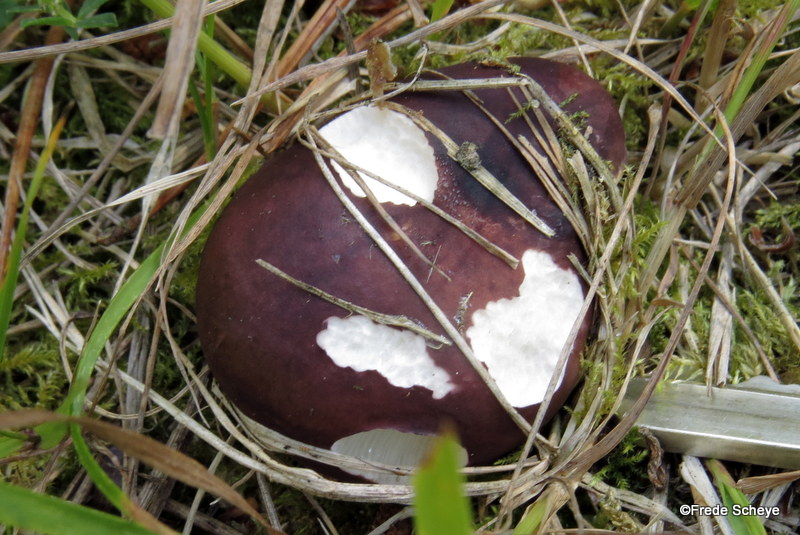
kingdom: Fungi
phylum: Basidiomycota
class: Agaricomycetes
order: Russulales
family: Russulaceae
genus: Russula
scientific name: Russula cessans
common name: fyrre-skørhat
